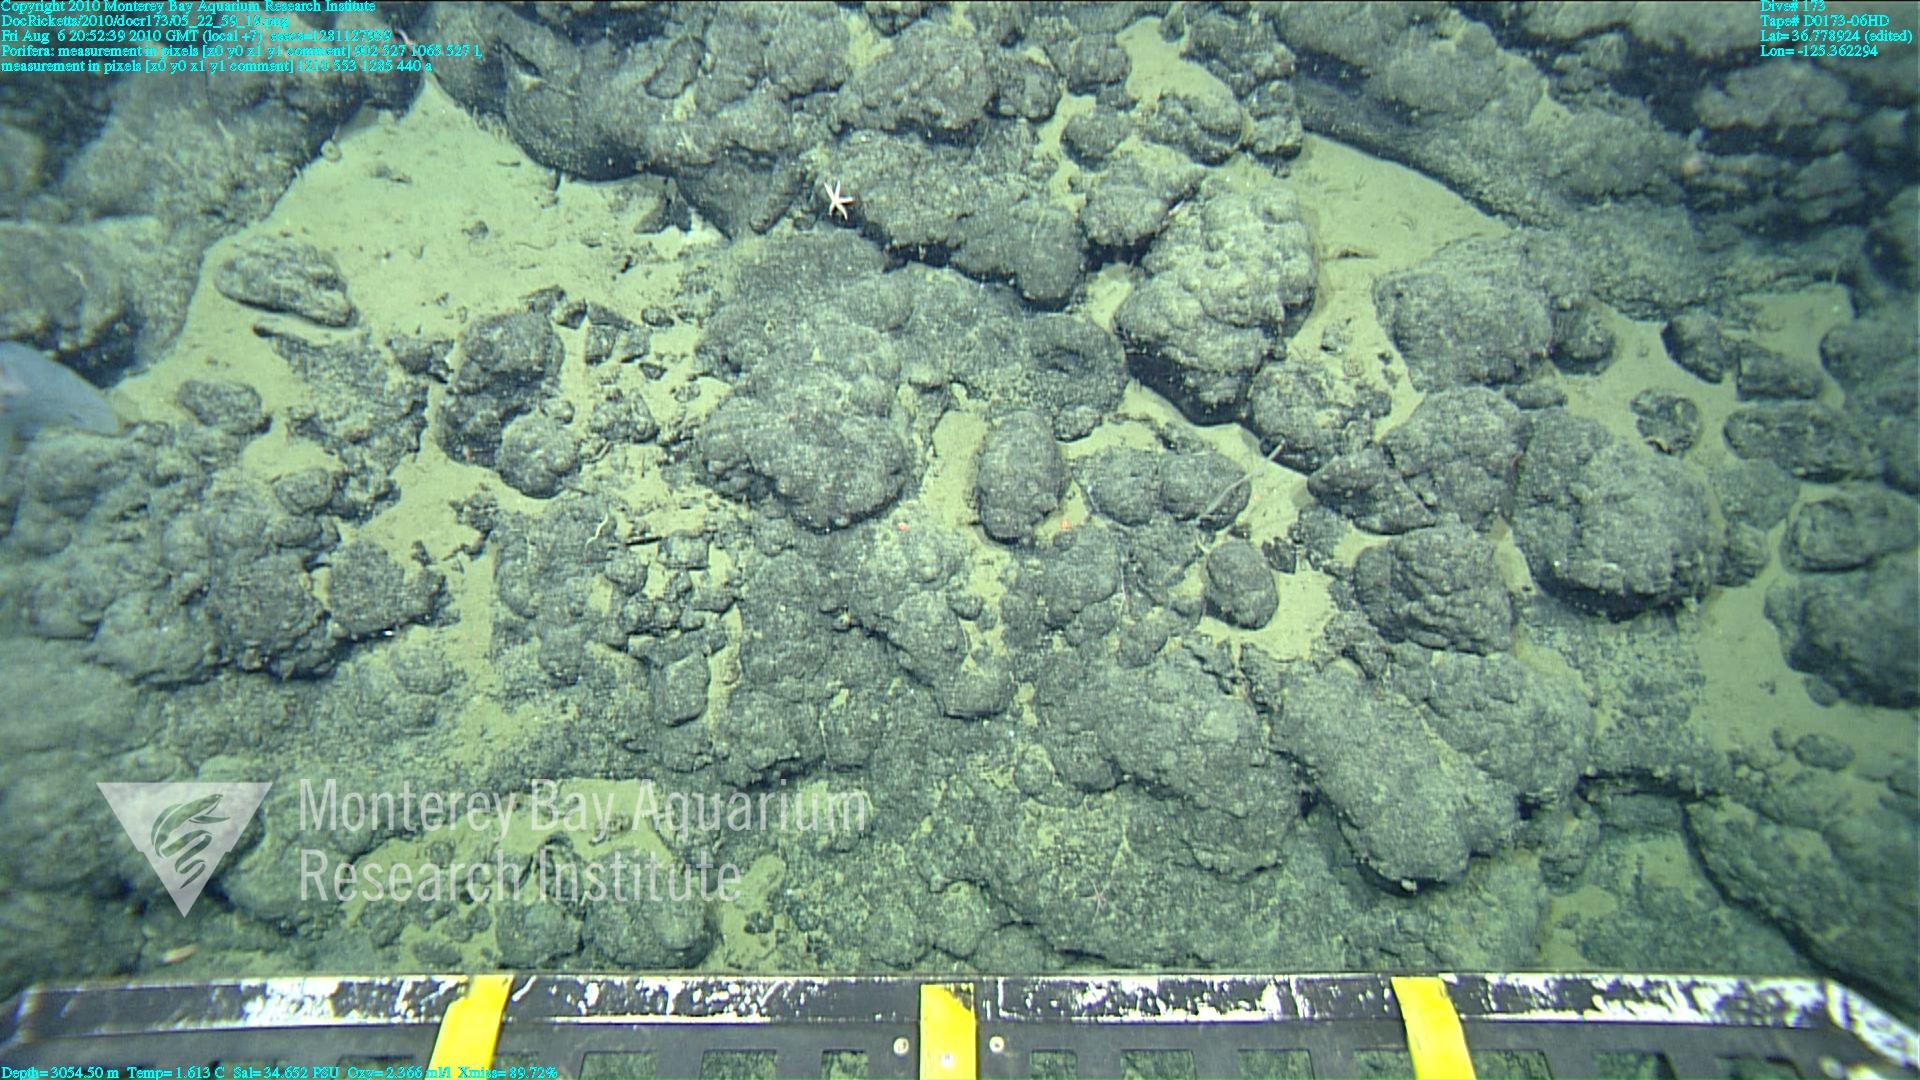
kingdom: Animalia
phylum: Porifera
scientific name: Porifera
